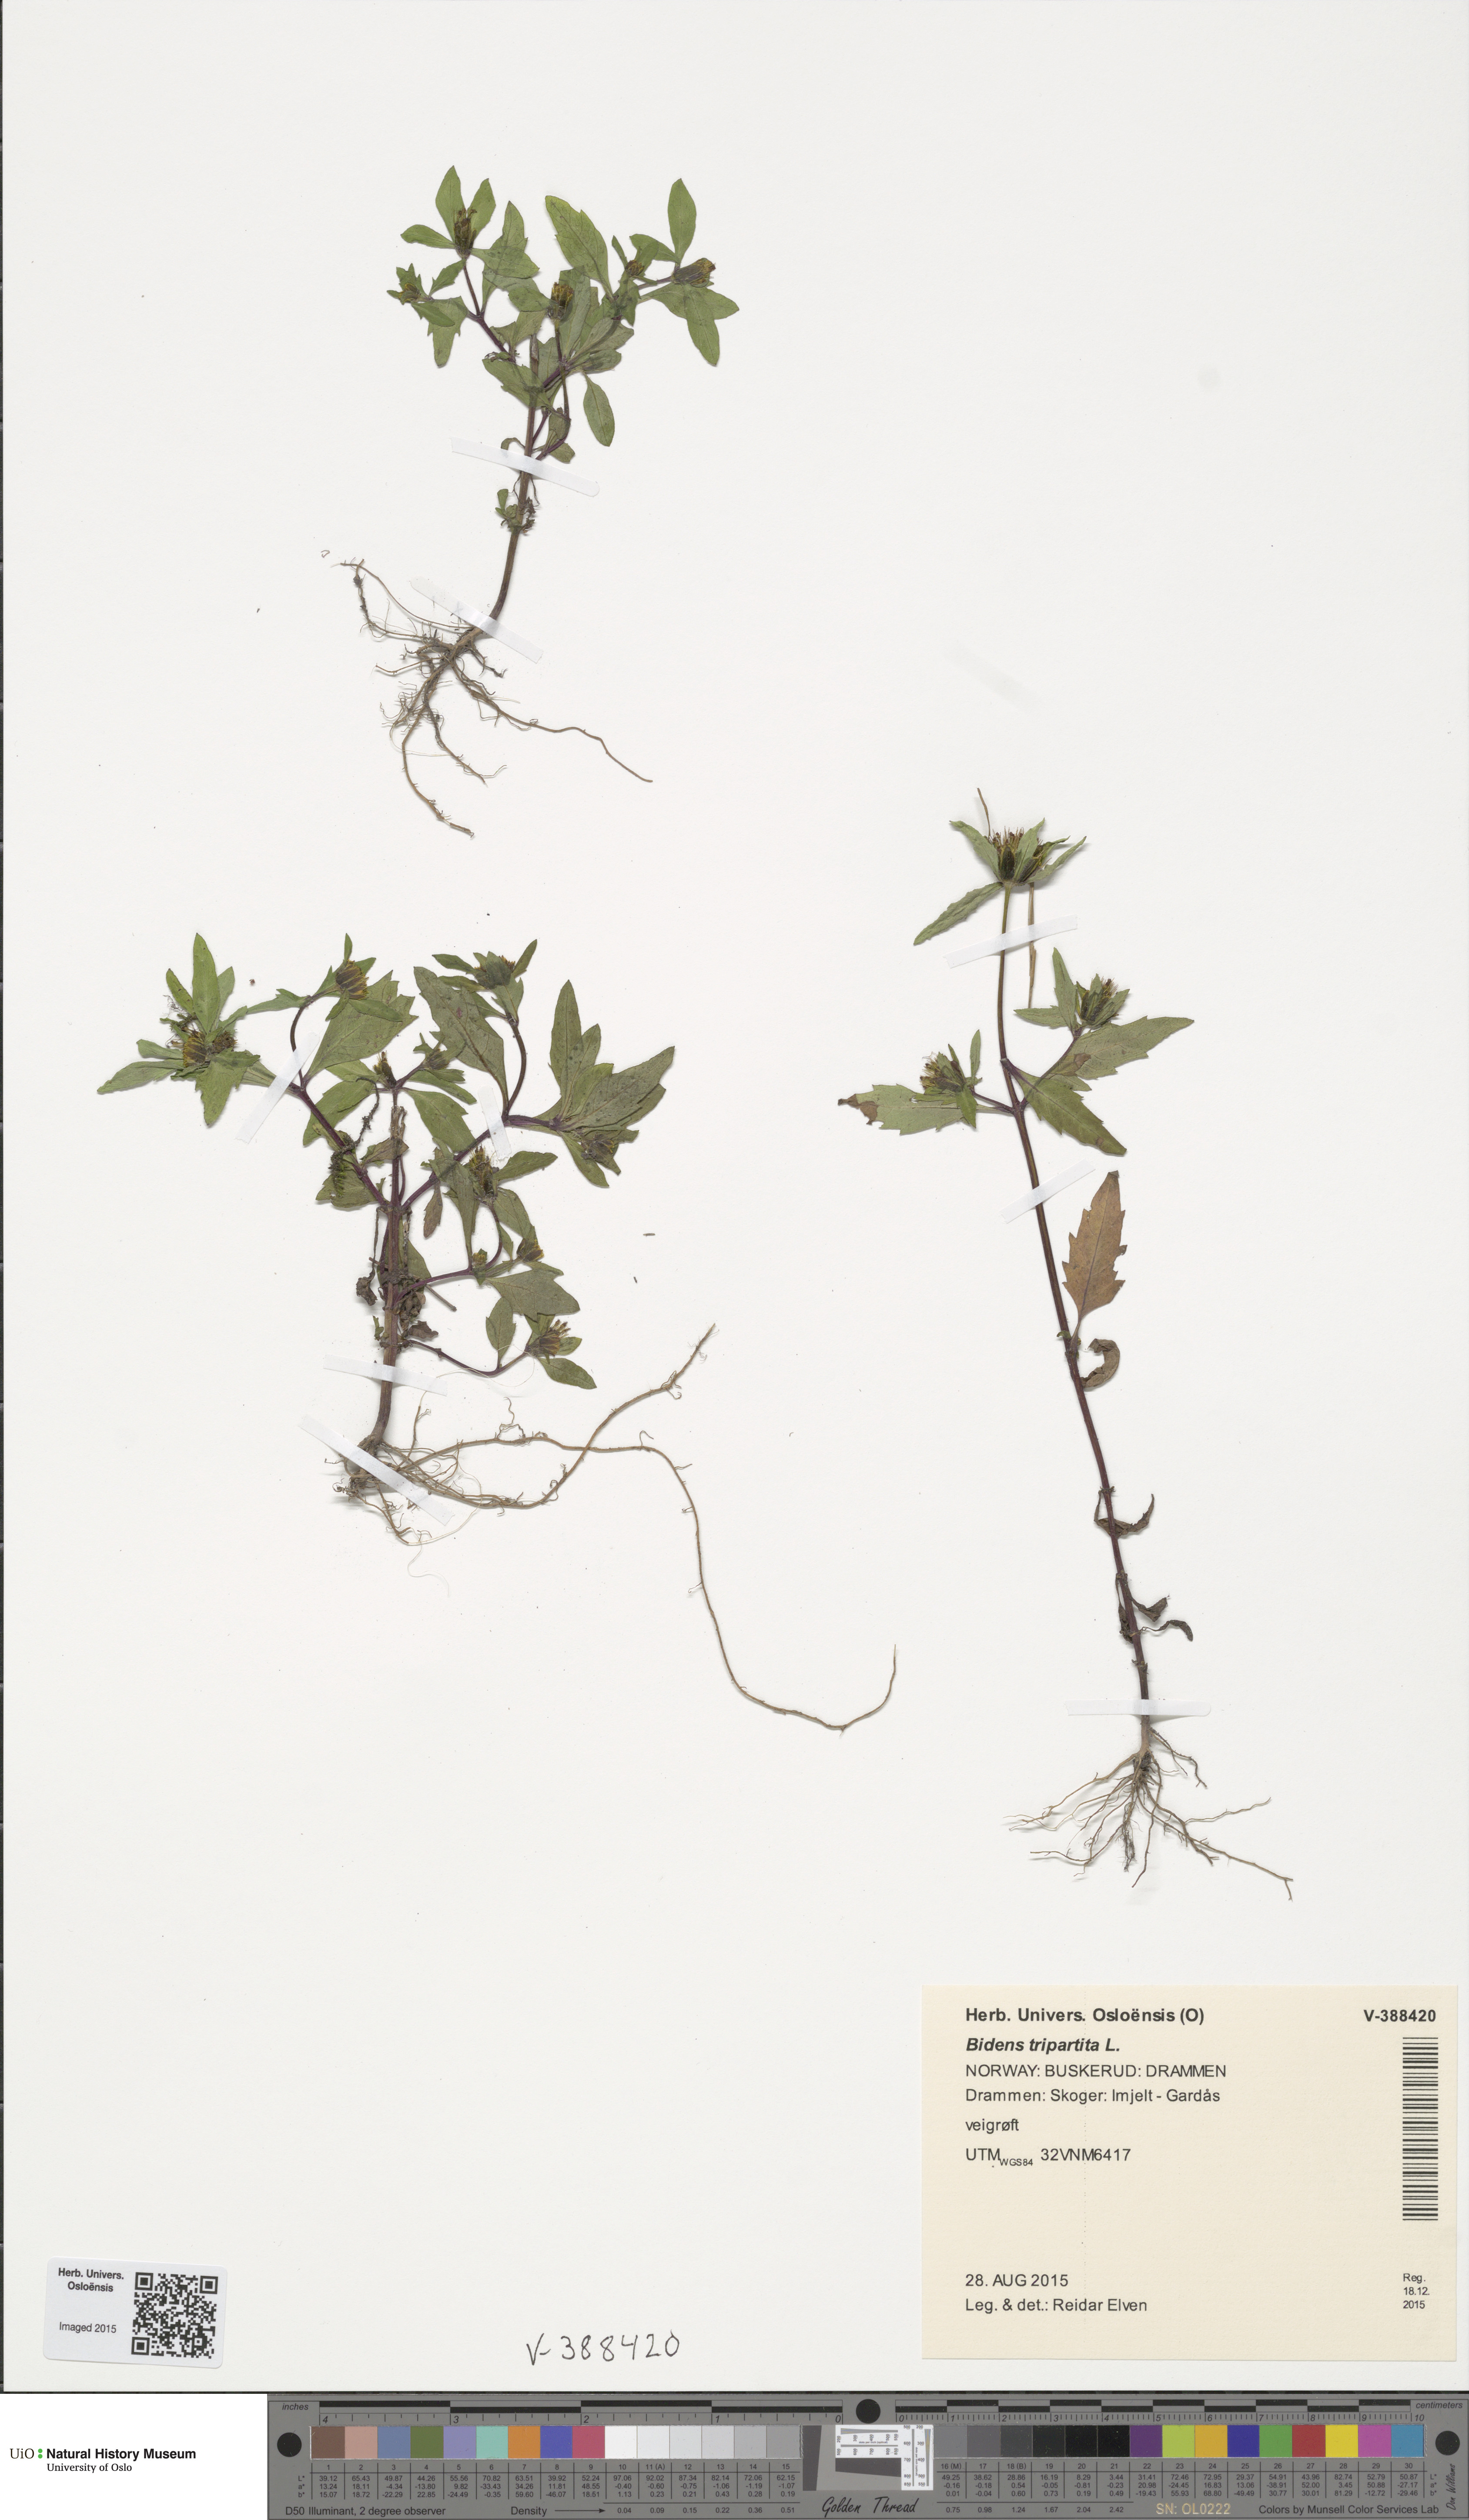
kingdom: Plantae
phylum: Tracheophyta
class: Magnoliopsida
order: Asterales
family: Asteraceae
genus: Bidens
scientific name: Bidens tripartita
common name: Trifid bur-marigold
